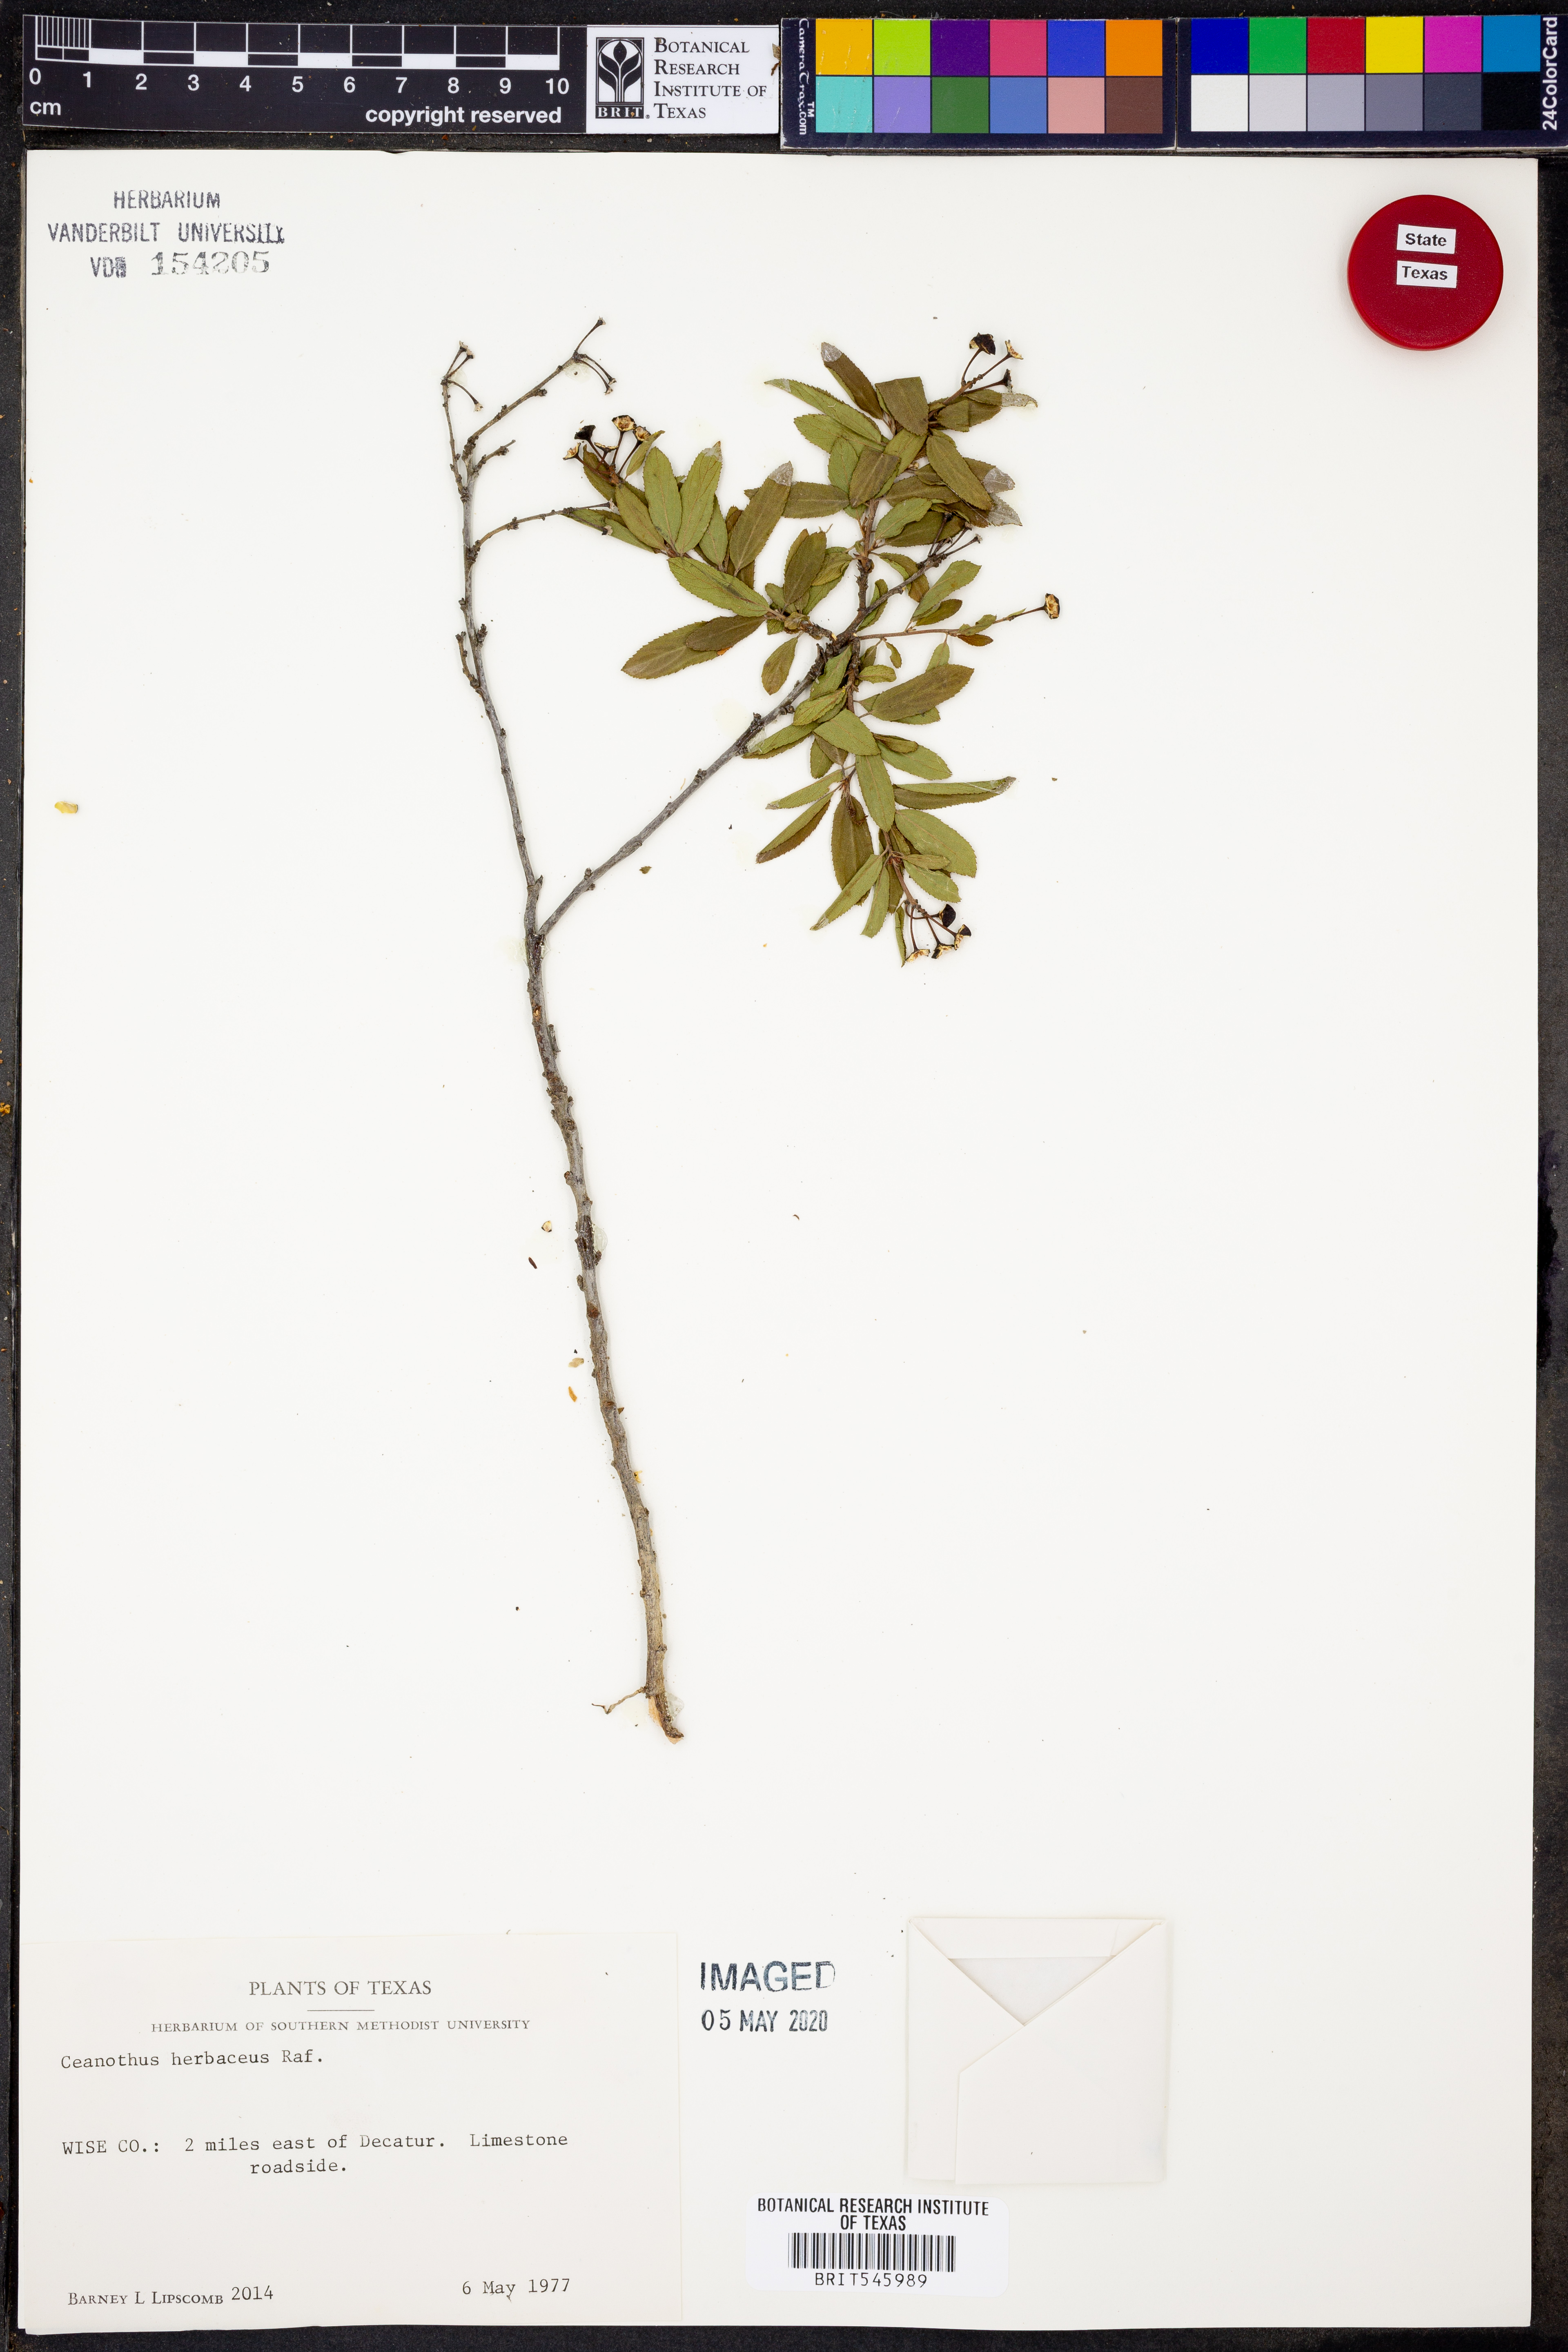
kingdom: Plantae
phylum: Tracheophyta
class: Magnoliopsida
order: Rosales
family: Rhamnaceae
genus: Ceanothus
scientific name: Ceanothus herbaceus
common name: Inland ceanothus
